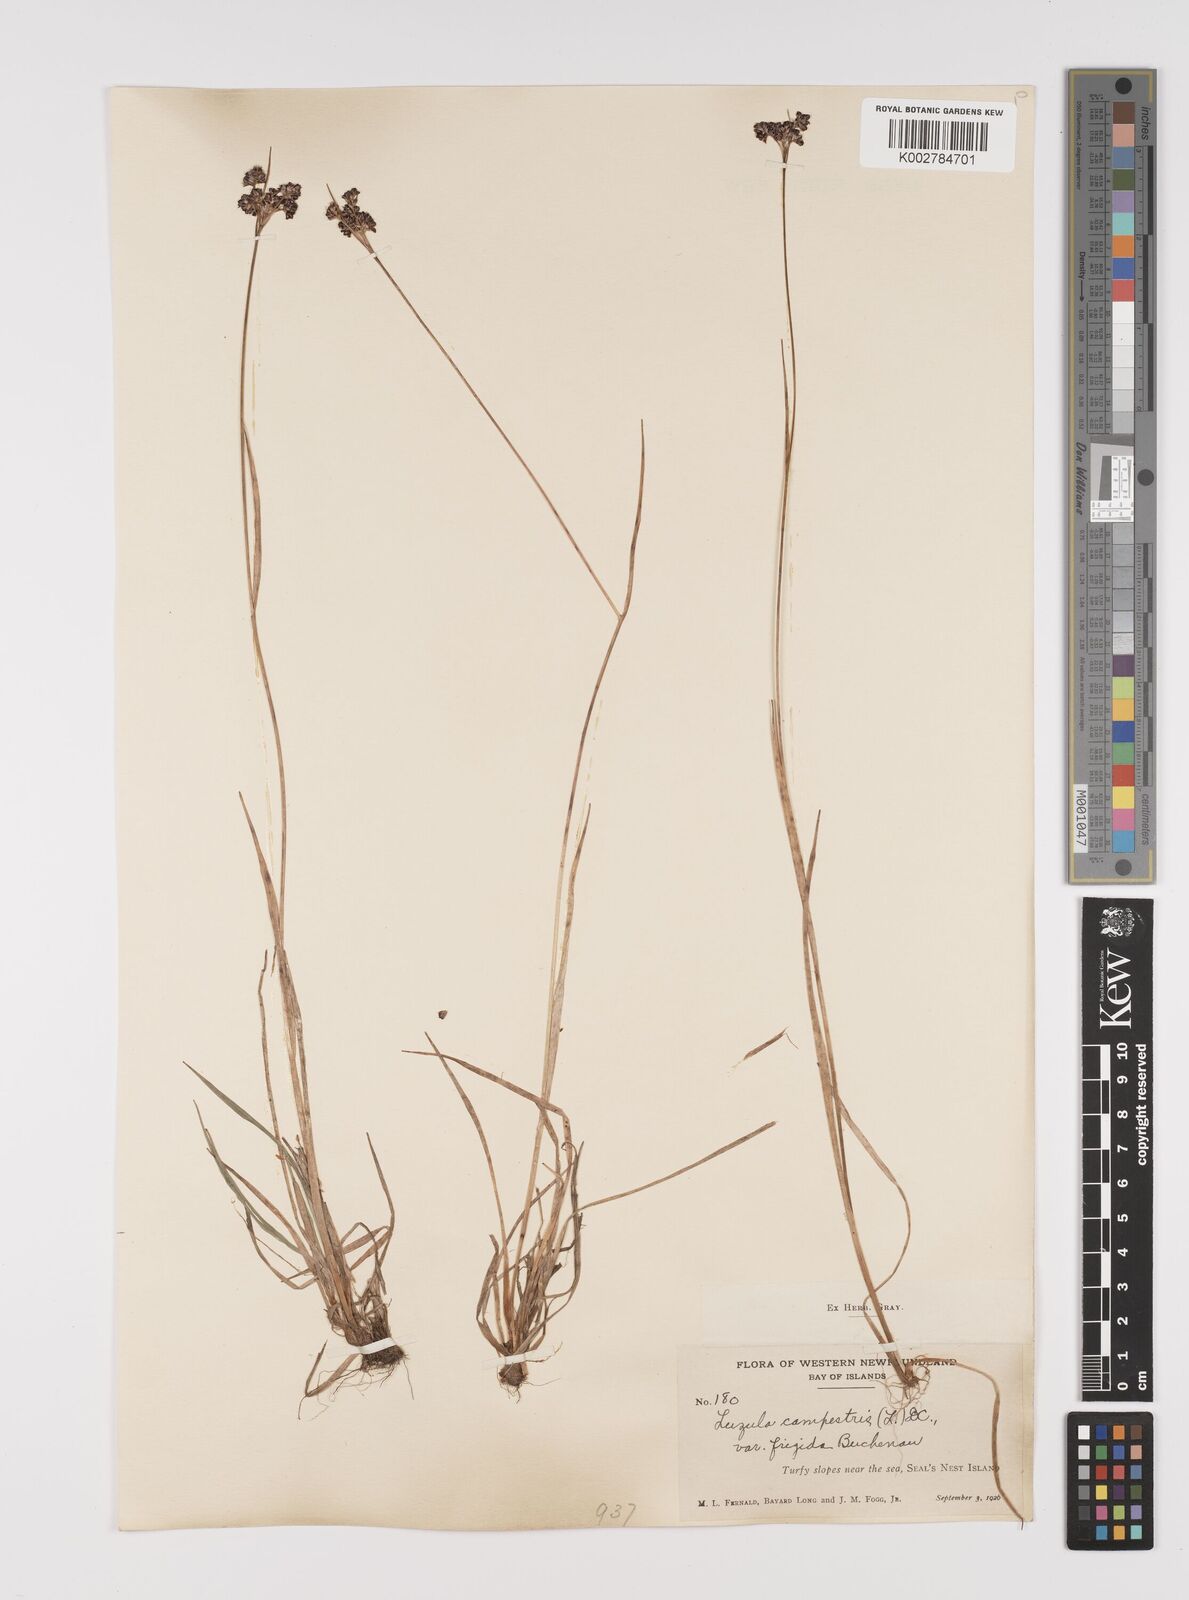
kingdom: Plantae
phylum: Tracheophyta
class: Liliopsida
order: Poales
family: Juncaceae
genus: Luzula
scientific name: Luzula multiflora
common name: Heath wood-rush
